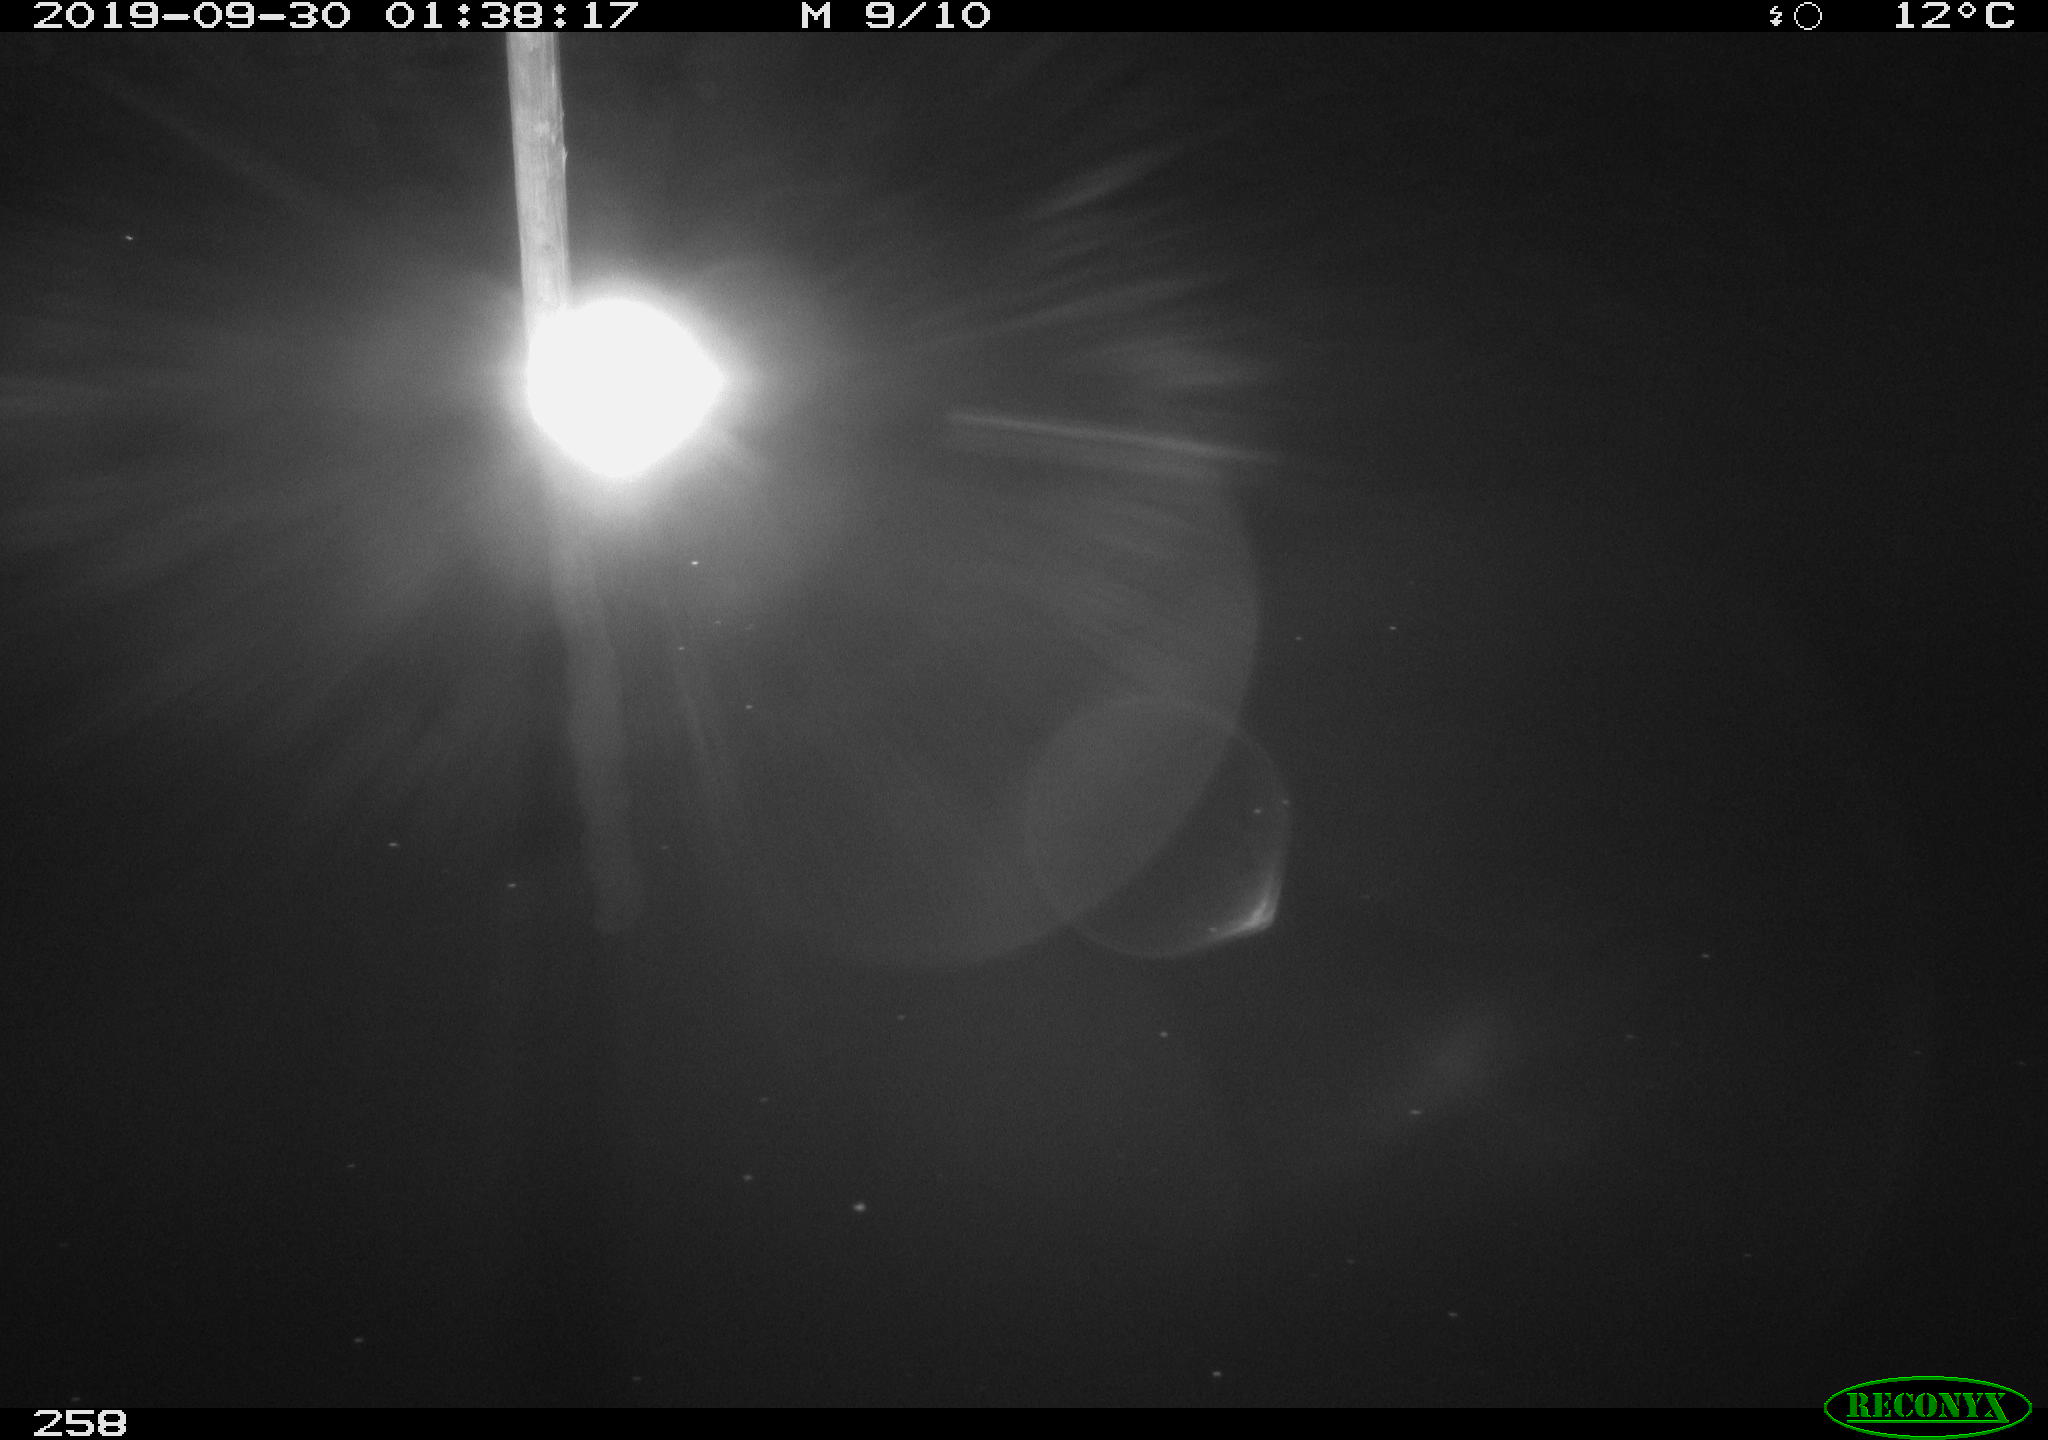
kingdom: Animalia
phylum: Chordata
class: Aves
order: Anseriformes
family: Anatidae
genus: Anas
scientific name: Anas platyrhynchos
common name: Mallard
